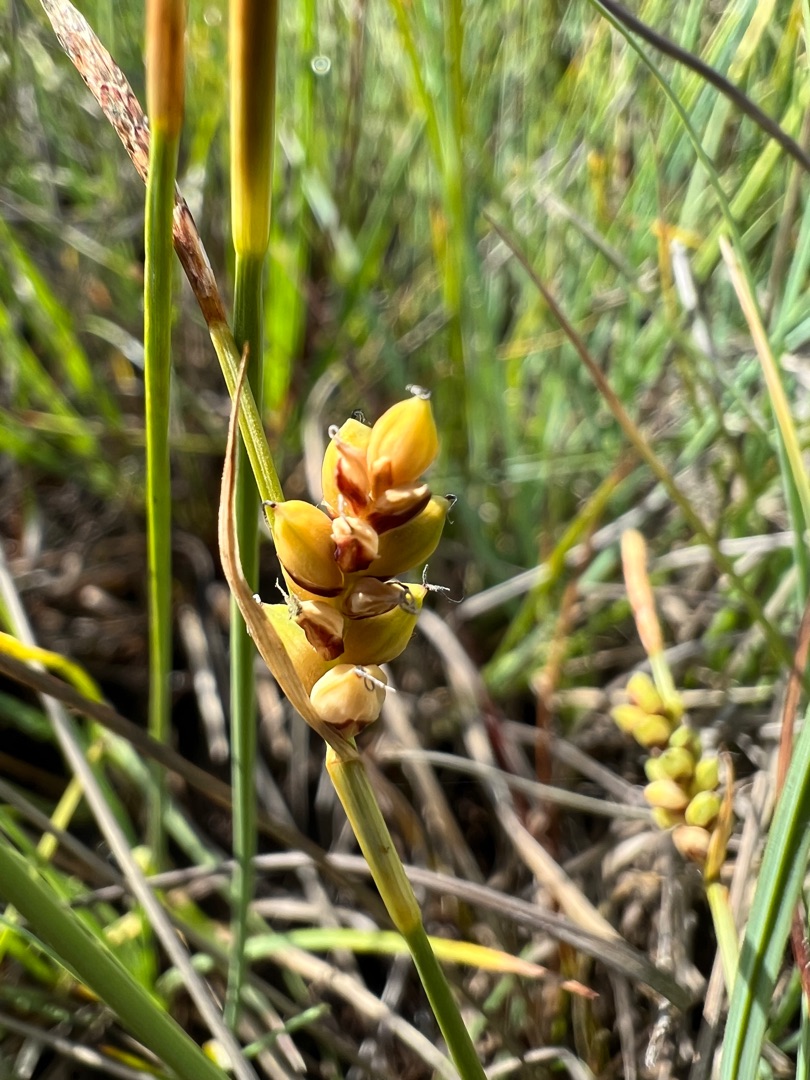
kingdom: Plantae
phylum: Tracheophyta
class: Liliopsida
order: Poales
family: Cyperaceae
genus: Carex
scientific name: Carex panicea
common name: Hirse-star
